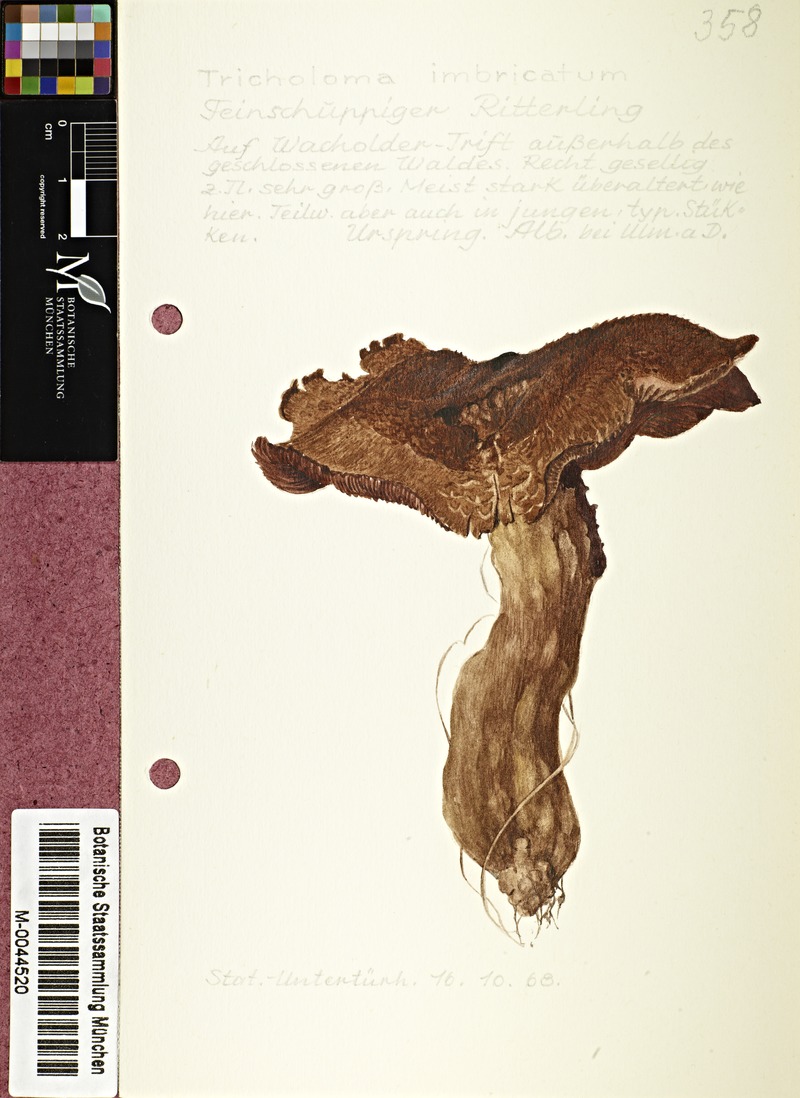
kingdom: Fungi
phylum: Basidiomycota
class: Agaricomycetes
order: Agaricales
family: Tricholomataceae
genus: Tricholoma
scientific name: Tricholoma imbricatum
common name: Matt knight
